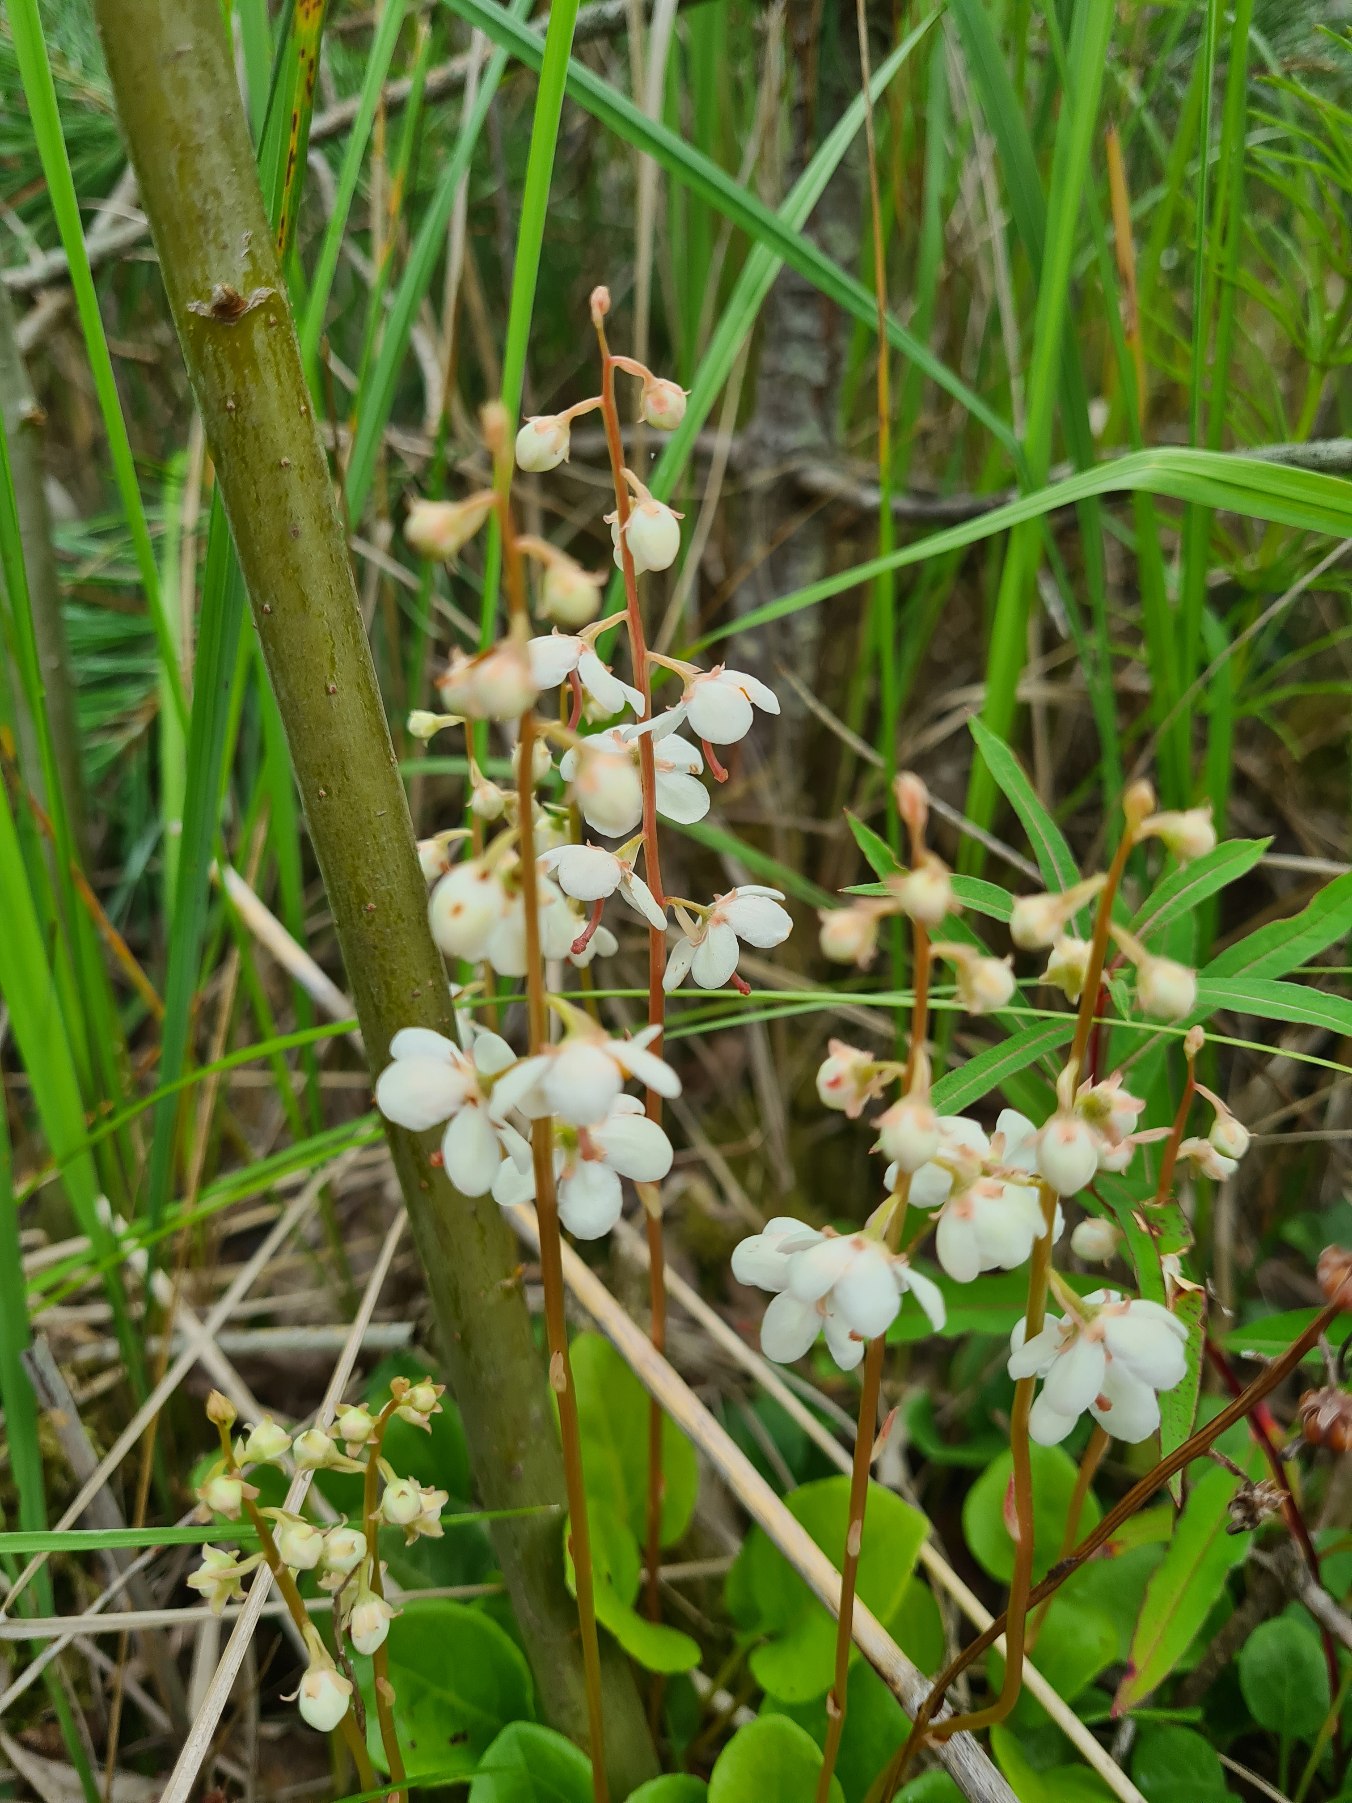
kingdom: Plantae
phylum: Tracheophyta
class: Magnoliopsida
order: Ericales
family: Ericaceae
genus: Pyrola
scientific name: Pyrola rotundifolia
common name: Mose-vintergrøn
